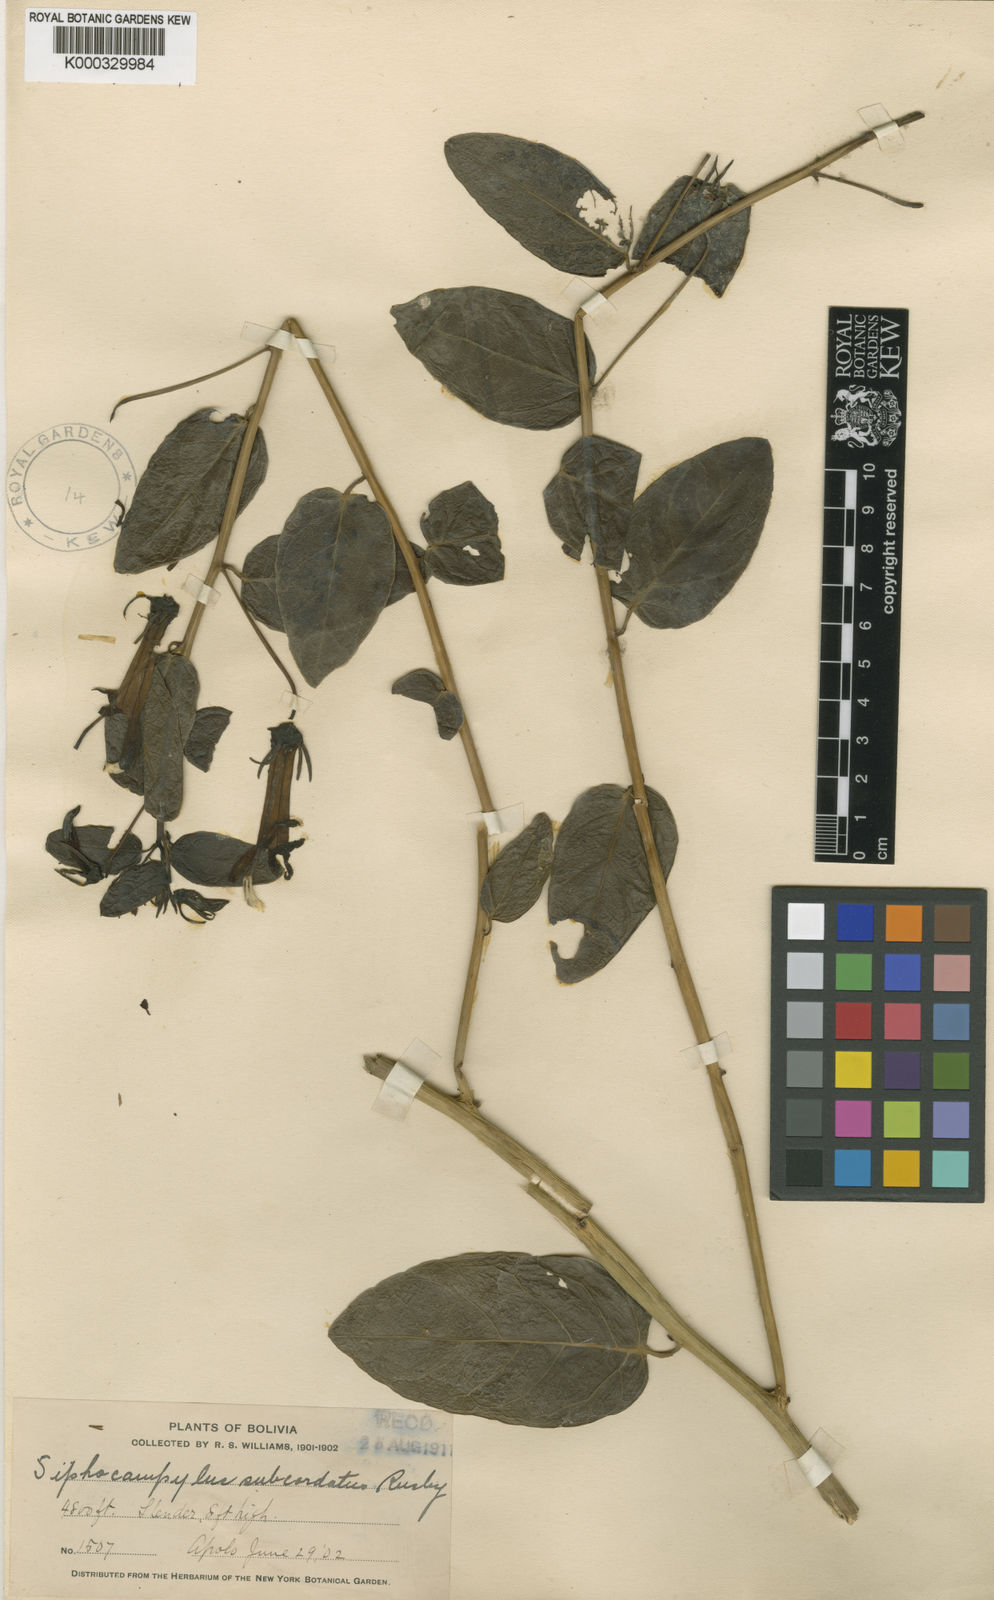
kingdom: Plantae
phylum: Tracheophyta
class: Magnoliopsida
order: Asterales
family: Campanulaceae
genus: Siphocampylus
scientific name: Siphocampylus subcordatus
